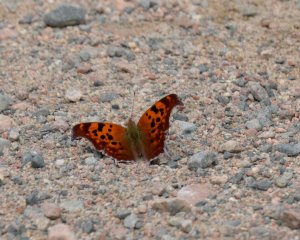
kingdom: Animalia
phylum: Arthropoda
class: Insecta
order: Lepidoptera
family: Nymphalidae
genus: Polygonia
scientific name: Polygonia interrogationis
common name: Question Mark
